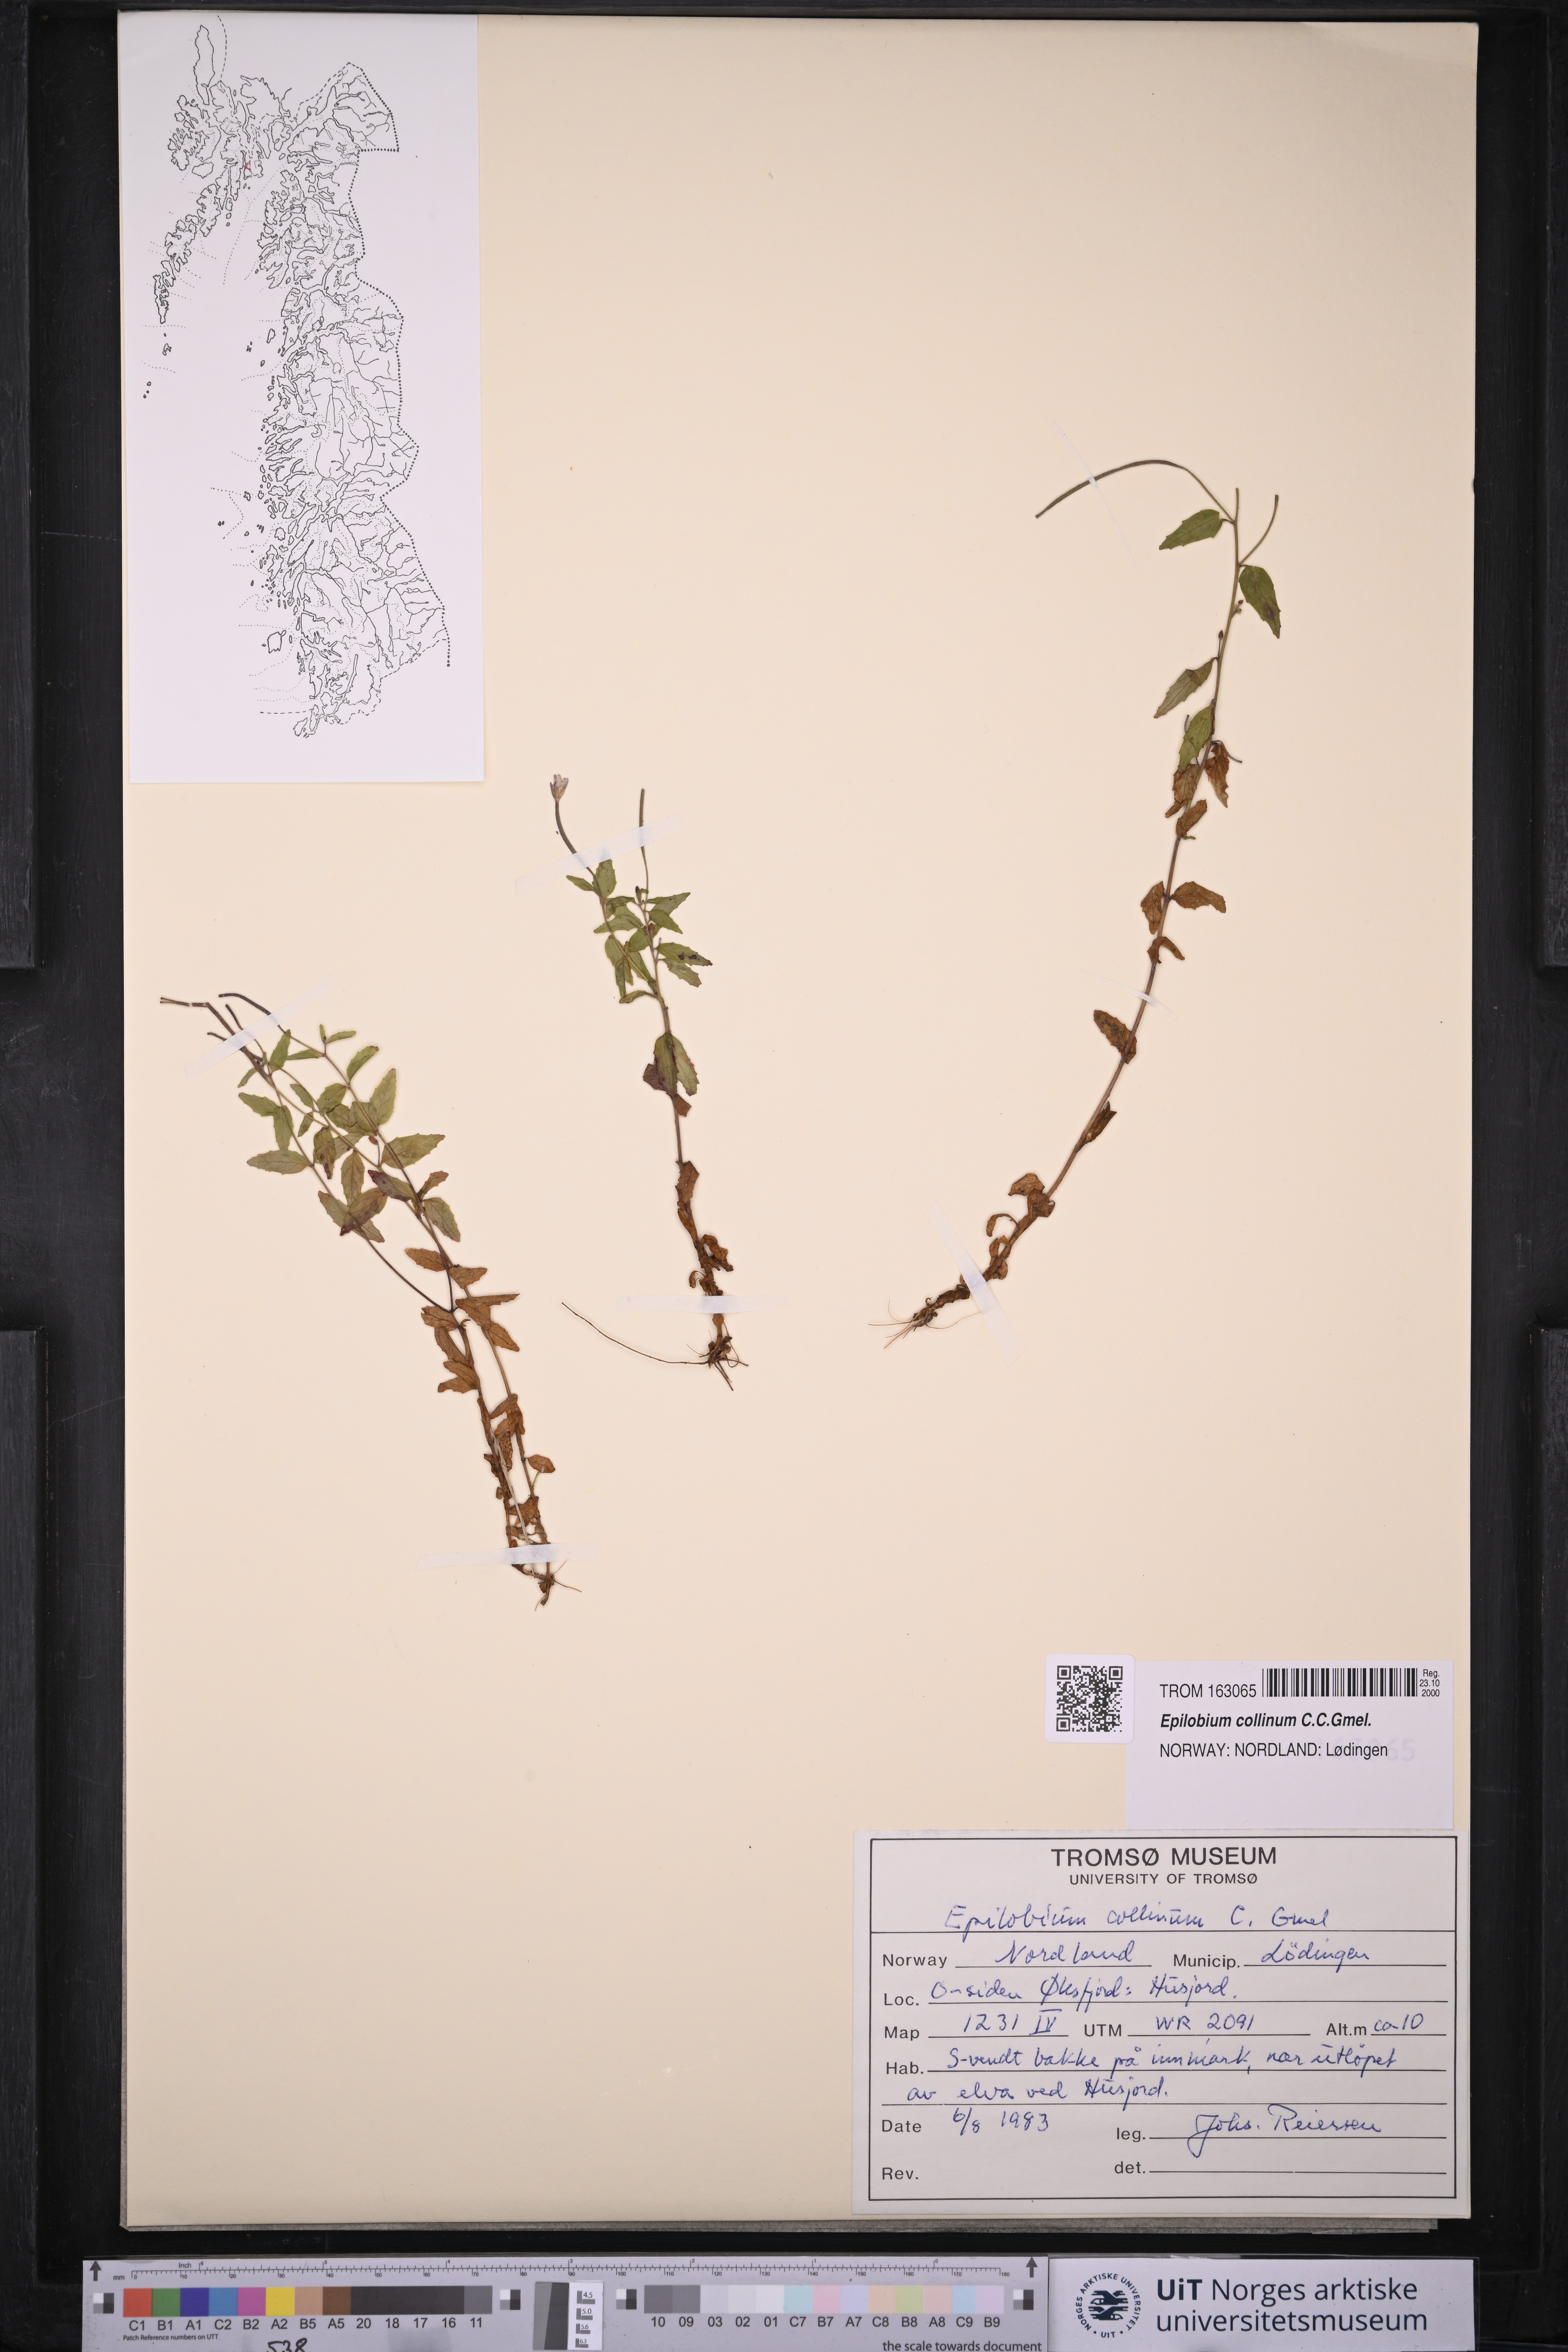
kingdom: Plantae
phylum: Tracheophyta
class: Magnoliopsida
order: Myrtales
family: Onagraceae
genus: Epilobium
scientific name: Epilobium collinum
